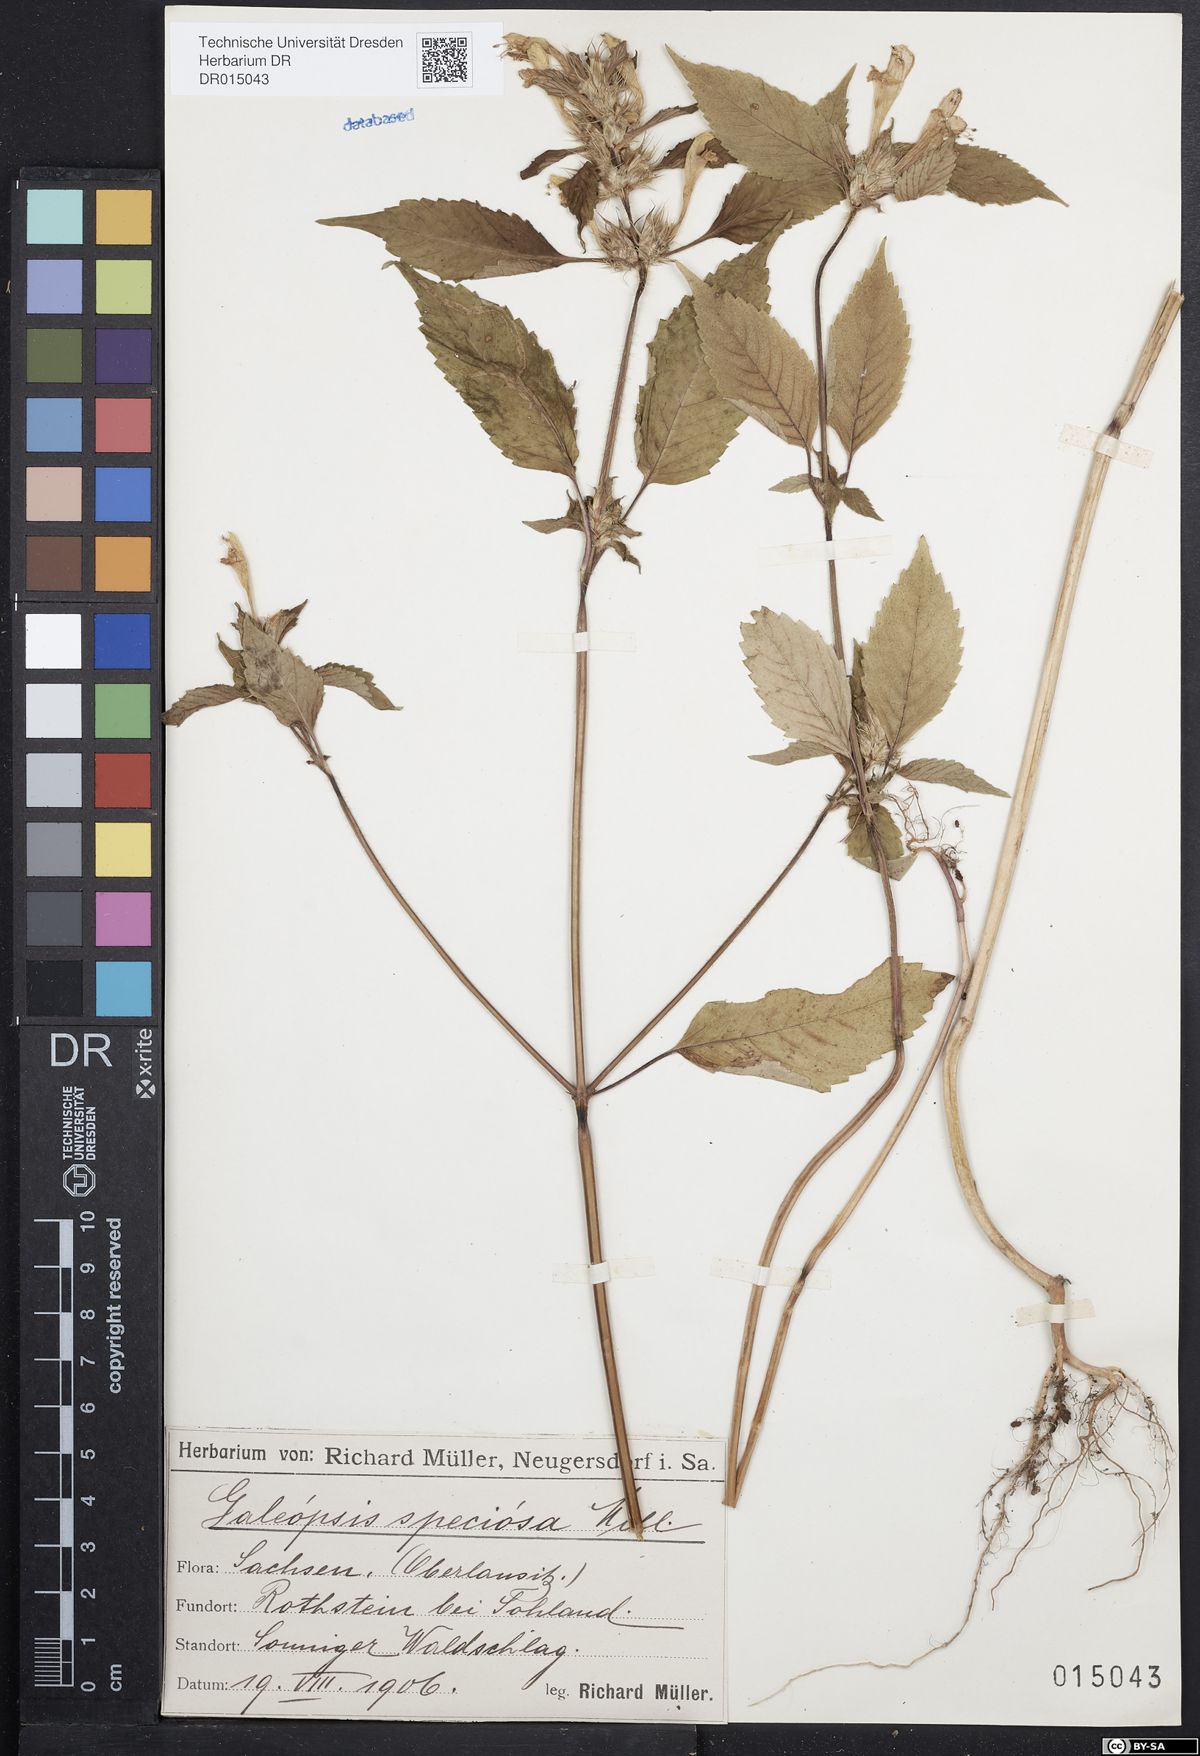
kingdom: Plantae
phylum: Tracheophyta
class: Magnoliopsida
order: Lamiales
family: Lamiaceae
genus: Galeopsis
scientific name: Galeopsis speciosa
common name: Large-flowered hemp-nettle
